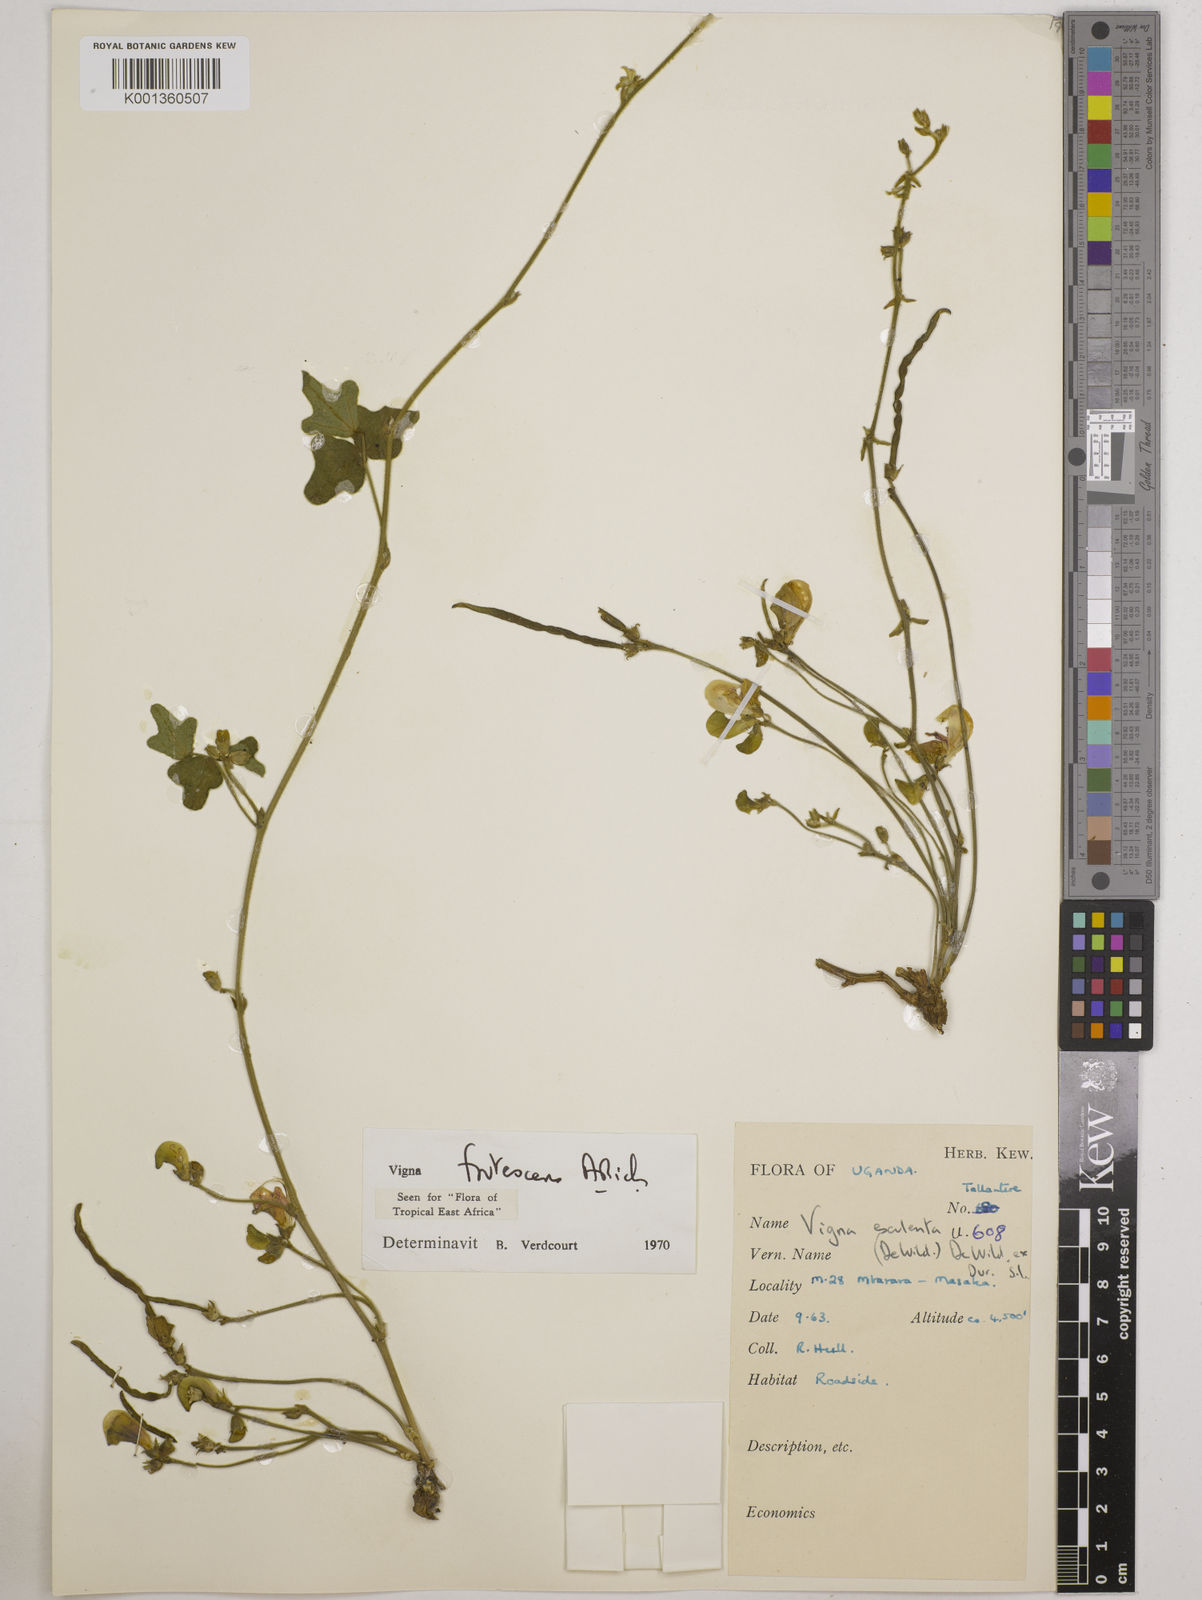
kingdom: Plantae
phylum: Tracheophyta
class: Magnoliopsida
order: Fabales
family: Fabaceae
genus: Vigna
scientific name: Vigna frutescens
